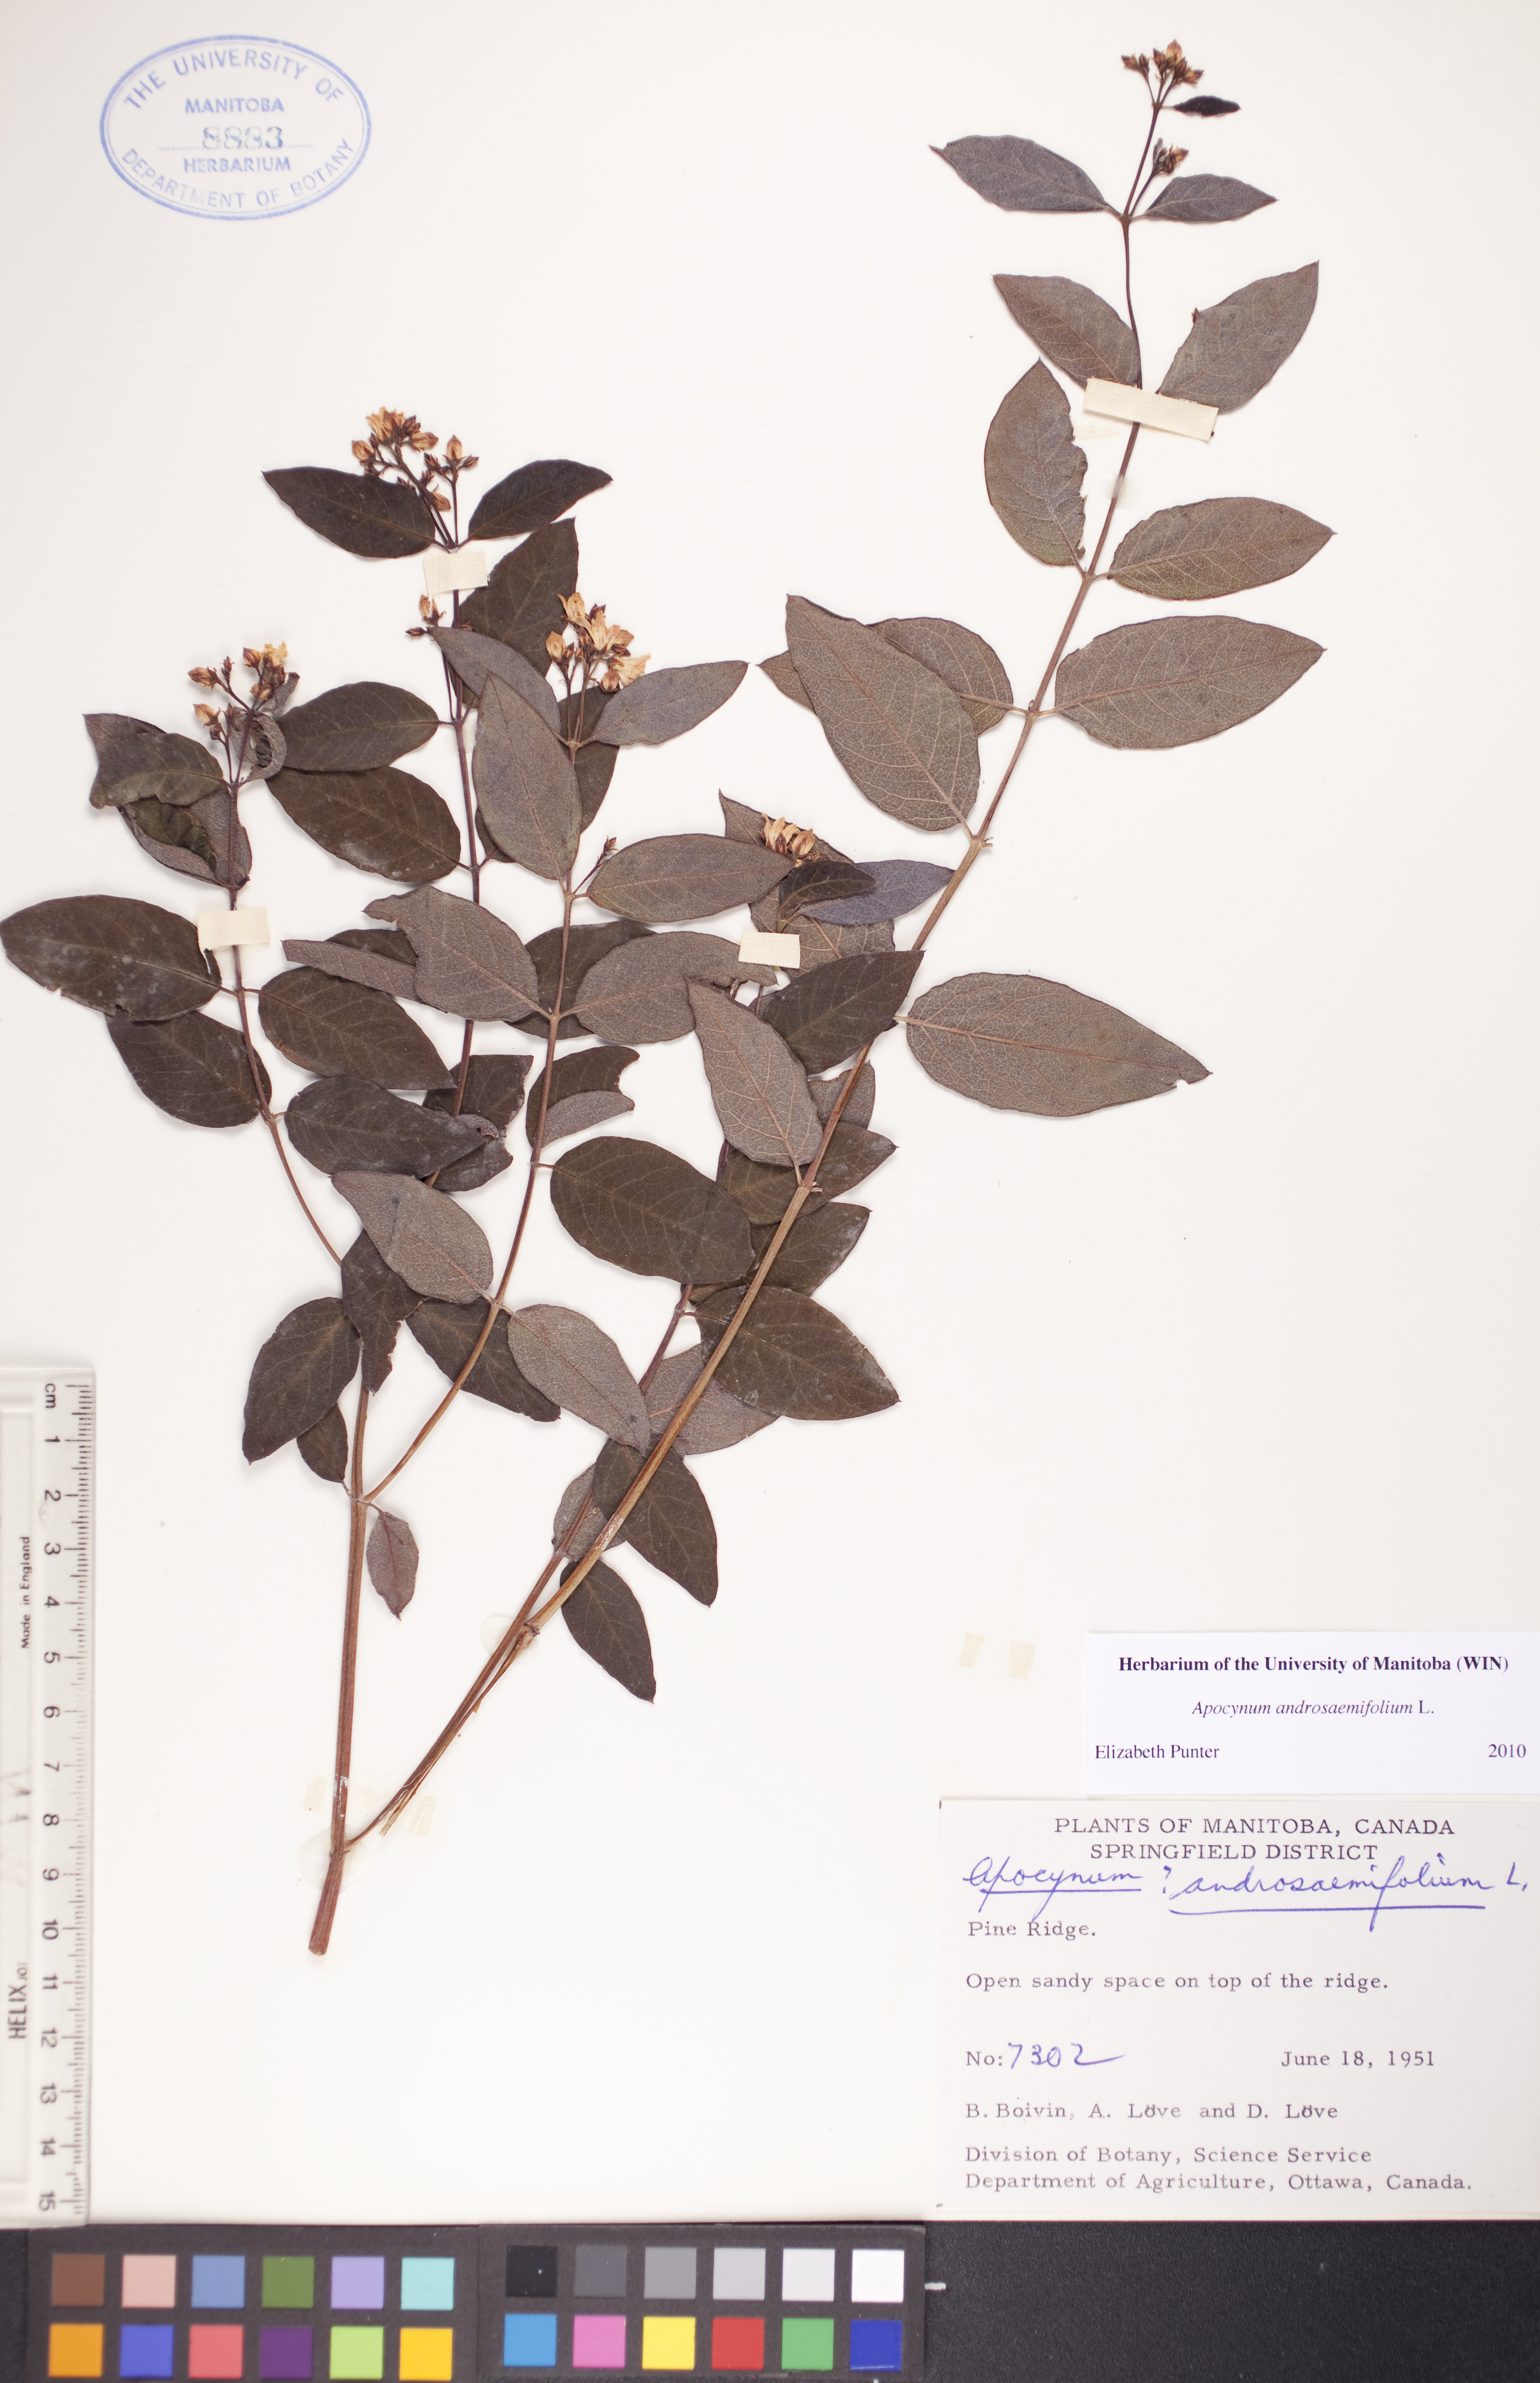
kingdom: Plantae
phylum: Tracheophyta
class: Magnoliopsida
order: Gentianales
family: Apocynaceae
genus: Apocynum
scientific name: Apocynum androsaemifolium
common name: Spreading dogbane
